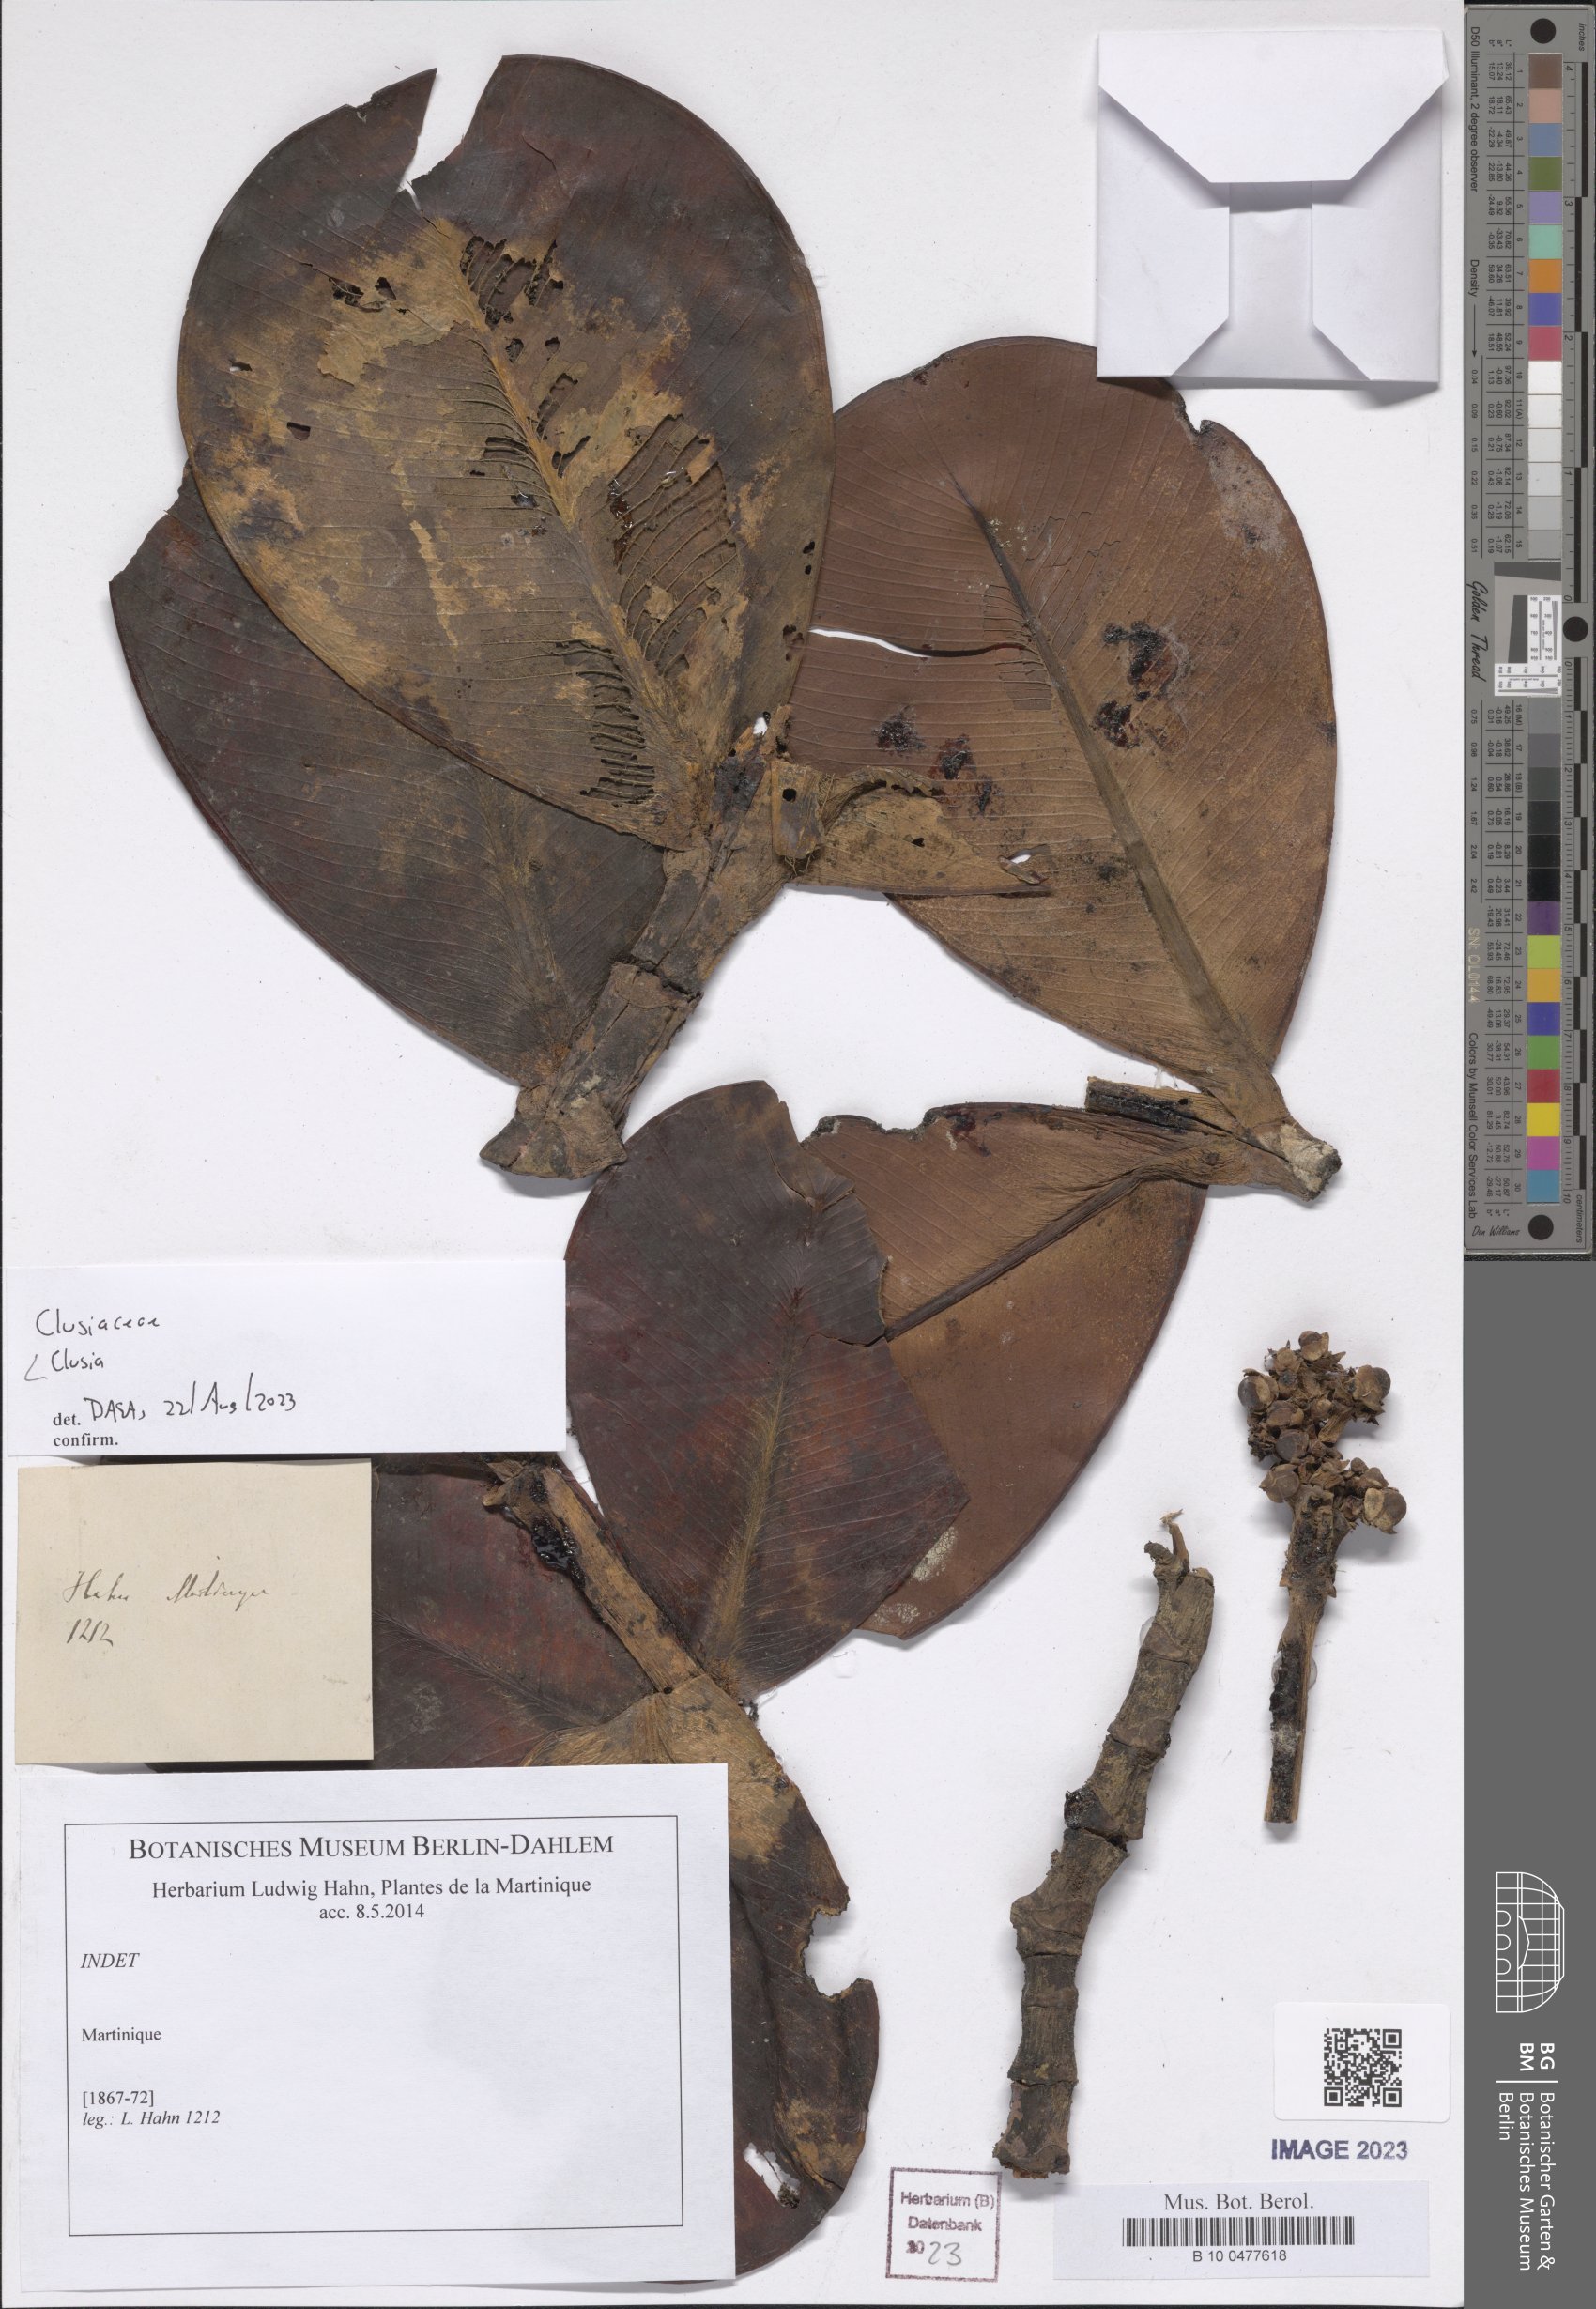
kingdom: Plantae
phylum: Tracheophyta
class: Magnoliopsida
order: Malpighiales
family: Clusiaceae
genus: Clusia
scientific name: Clusia
